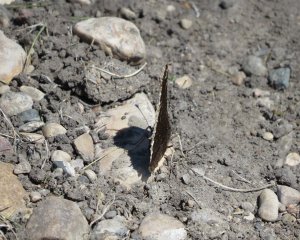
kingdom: Animalia
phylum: Arthropoda
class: Insecta
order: Lepidoptera
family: Nymphalidae
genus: Nymphalis
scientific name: Nymphalis antiopa
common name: Mourning Cloak
